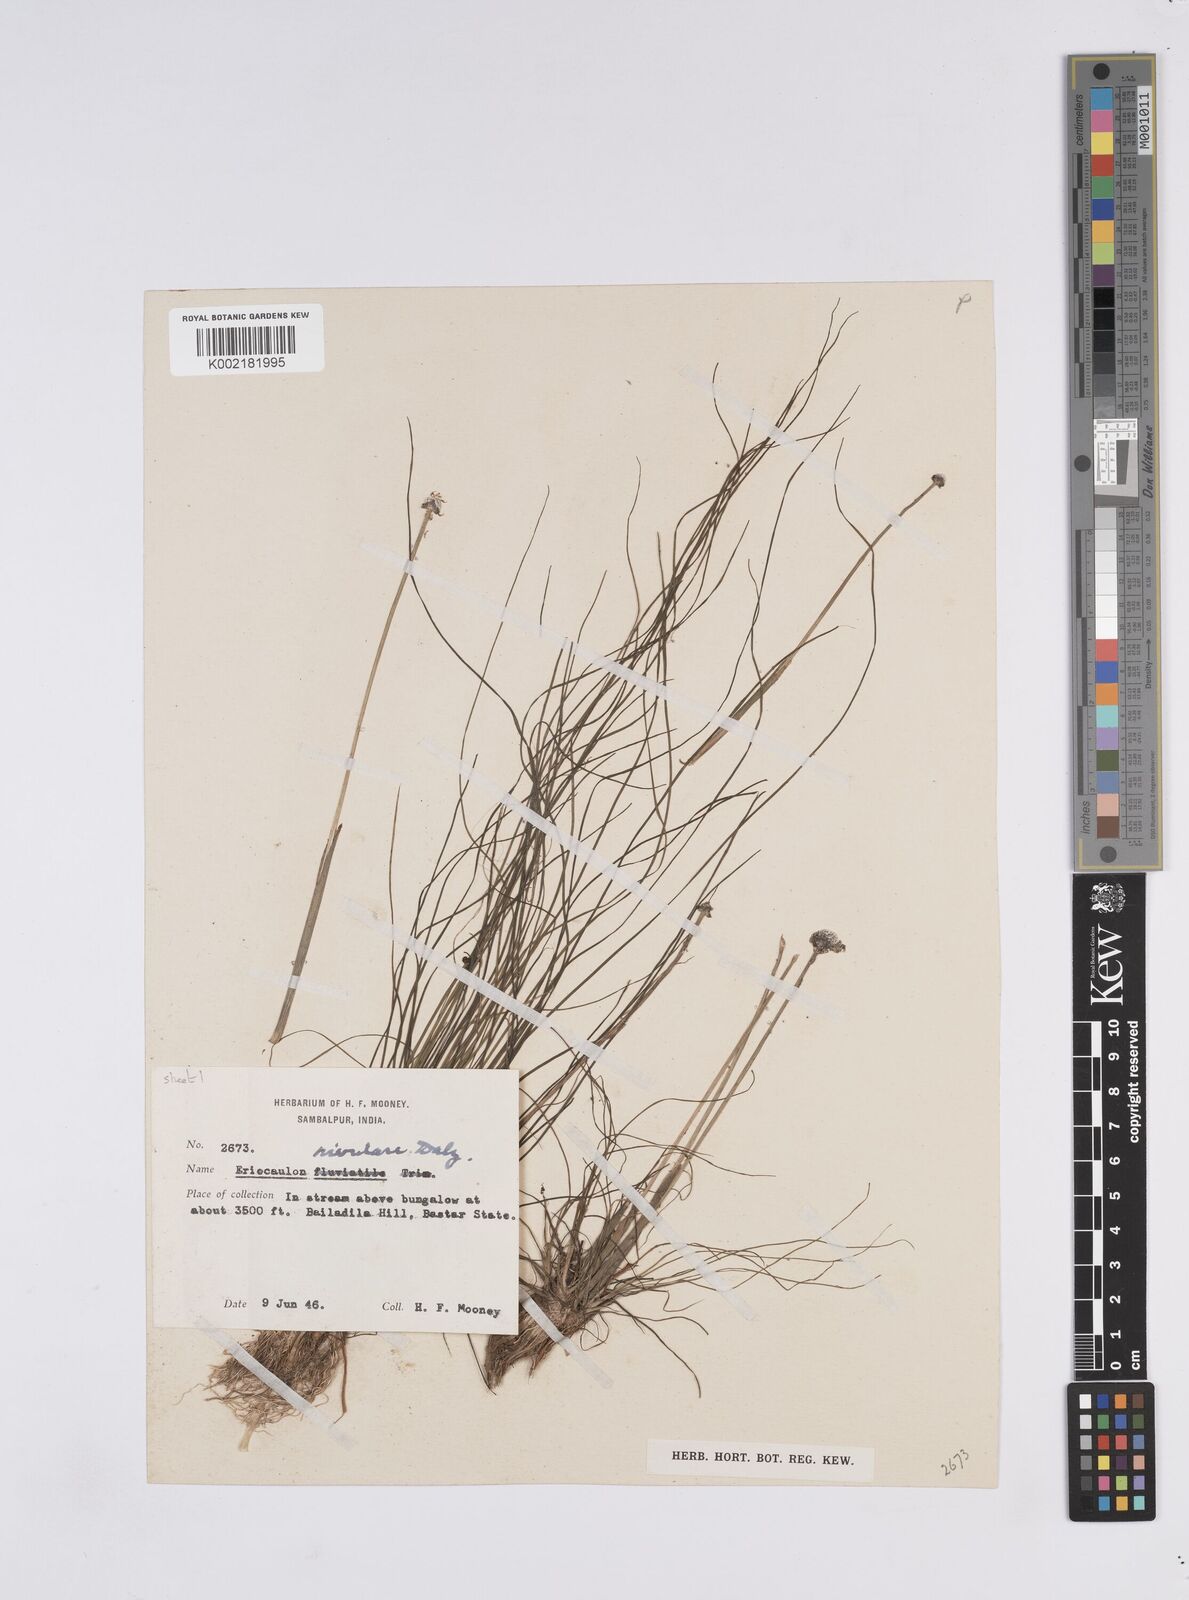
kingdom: Plantae
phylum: Tracheophyta
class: Liliopsida
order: Poales
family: Eriocaulaceae
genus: Eriocaulon
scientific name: Eriocaulon fluviatile
